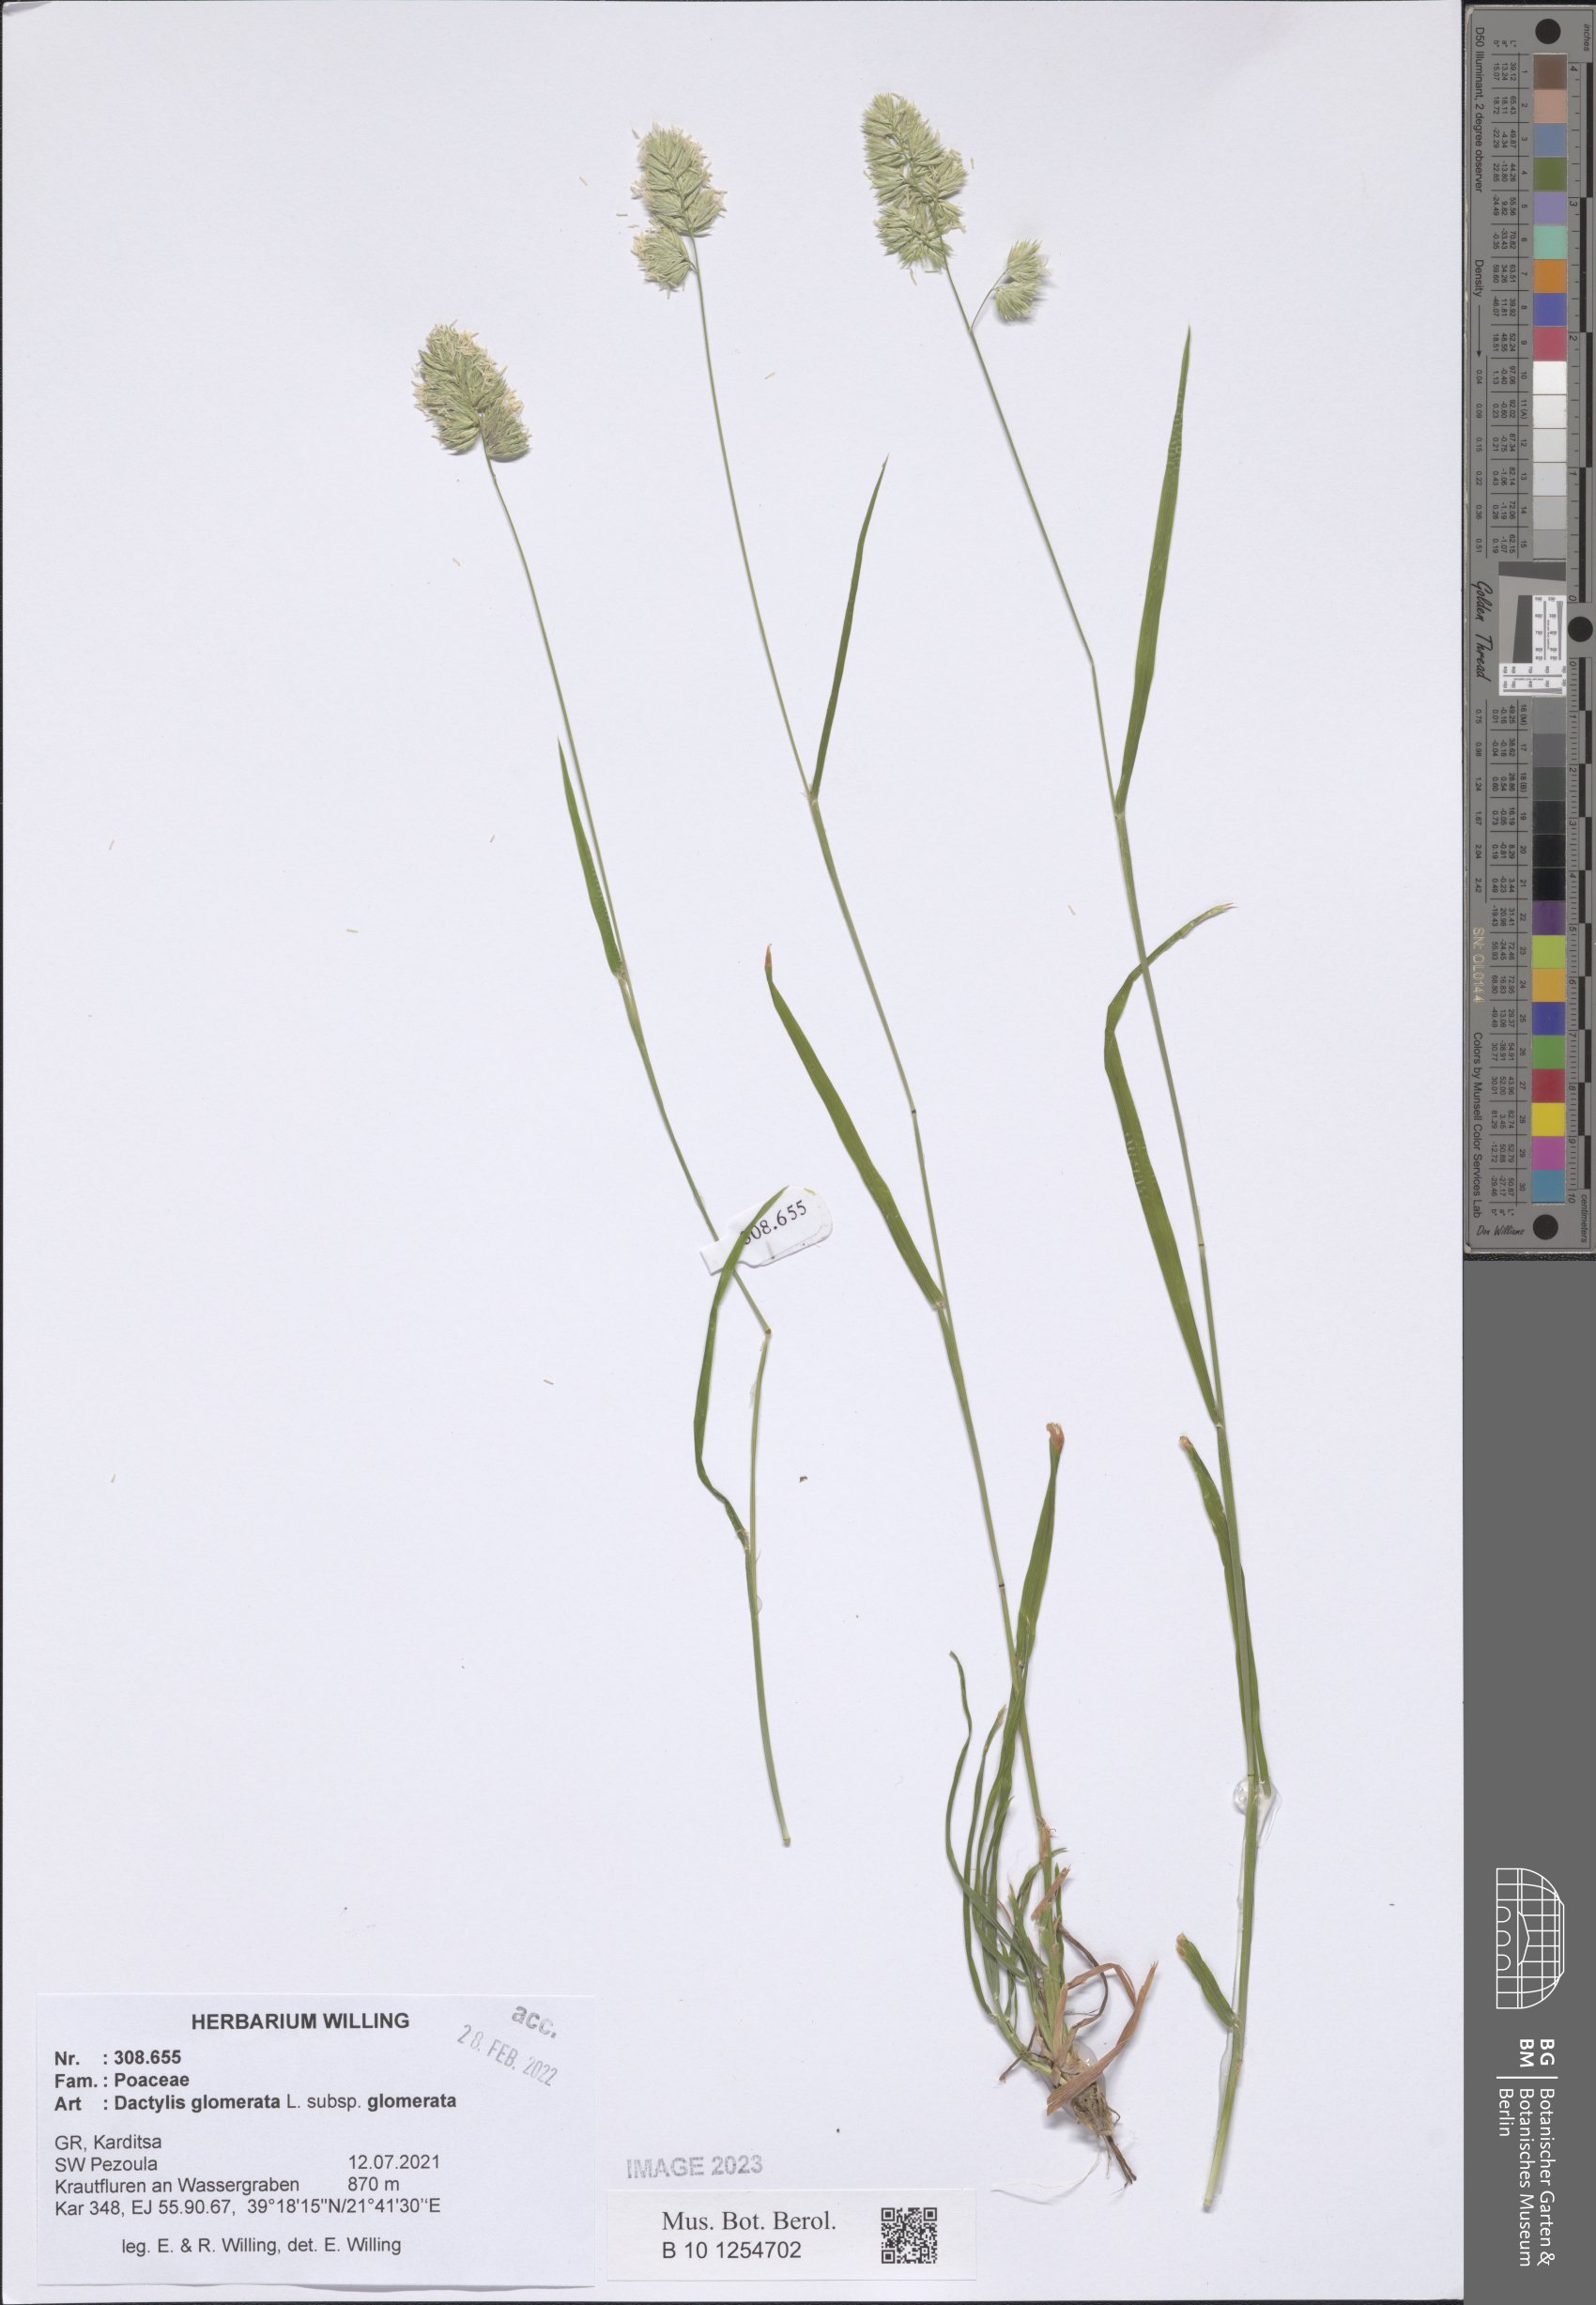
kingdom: Plantae
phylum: Tracheophyta
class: Liliopsida
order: Poales
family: Poaceae
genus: Dactylis
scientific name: Dactylis glomerata
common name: Orchardgrass
